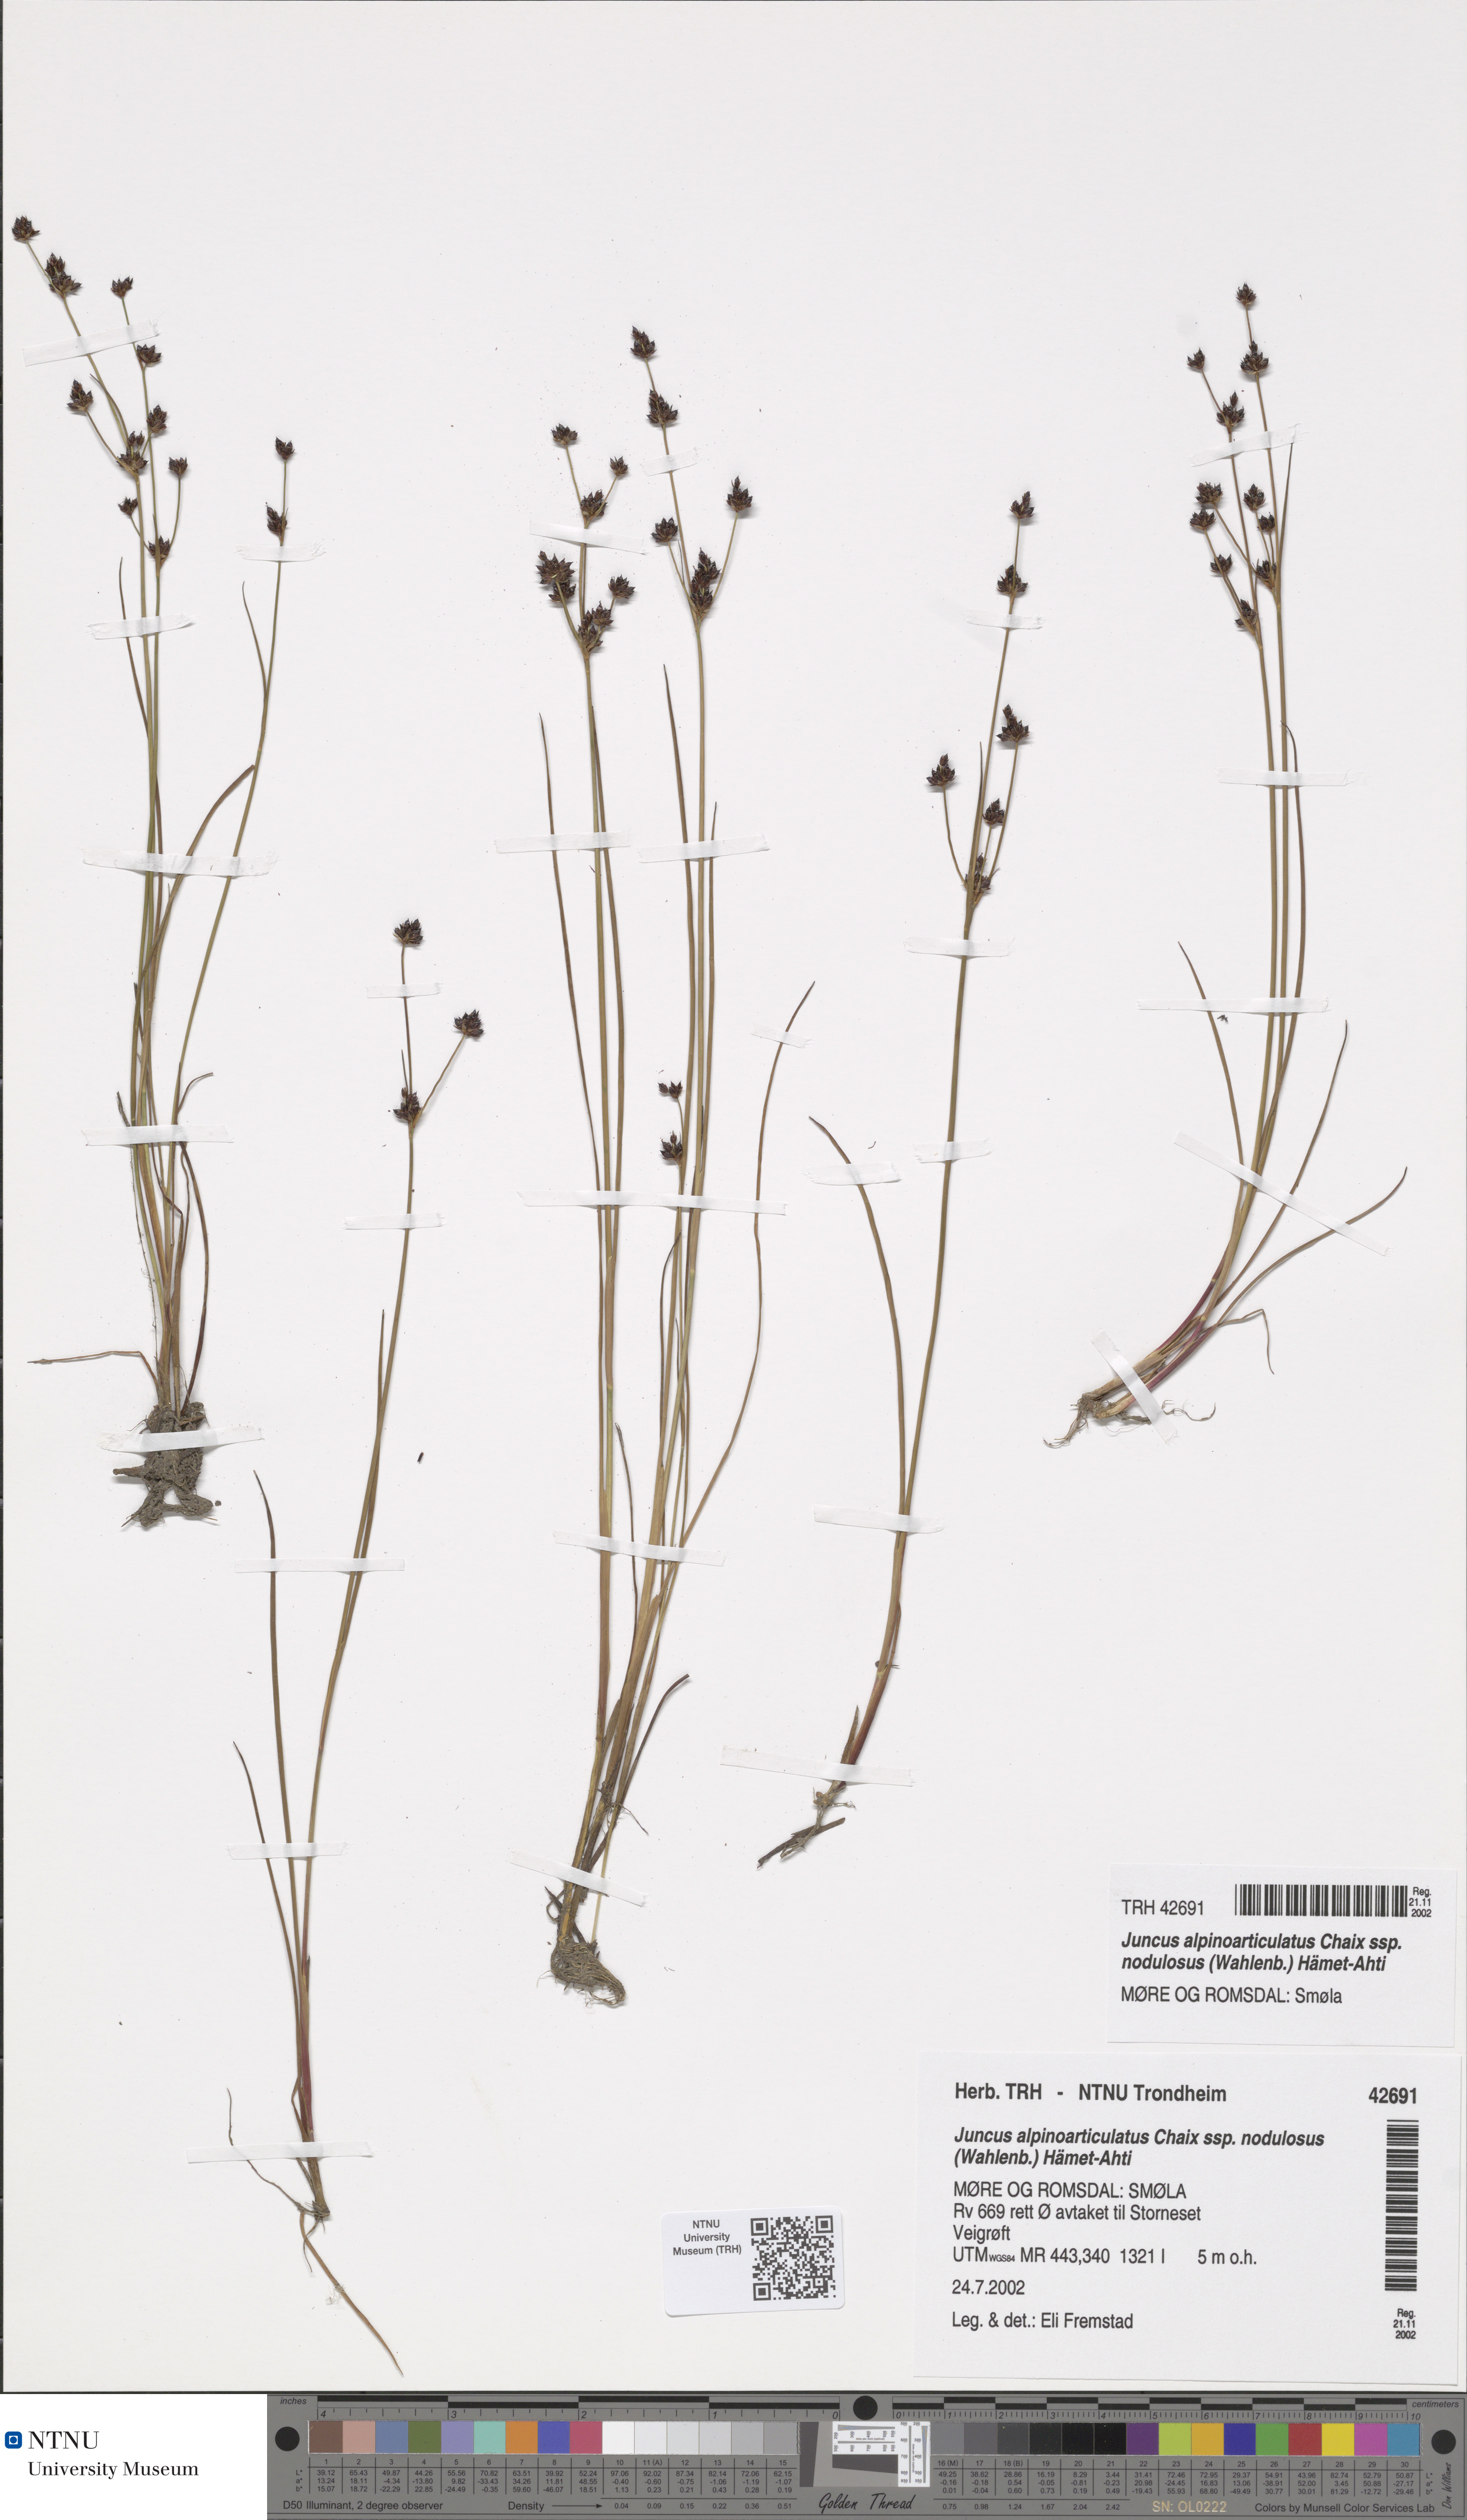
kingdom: Plantae
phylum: Tracheophyta
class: Liliopsida
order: Poales
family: Juncaceae
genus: Juncus
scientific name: Juncus alpinoarticulatus
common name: Alpine rush
